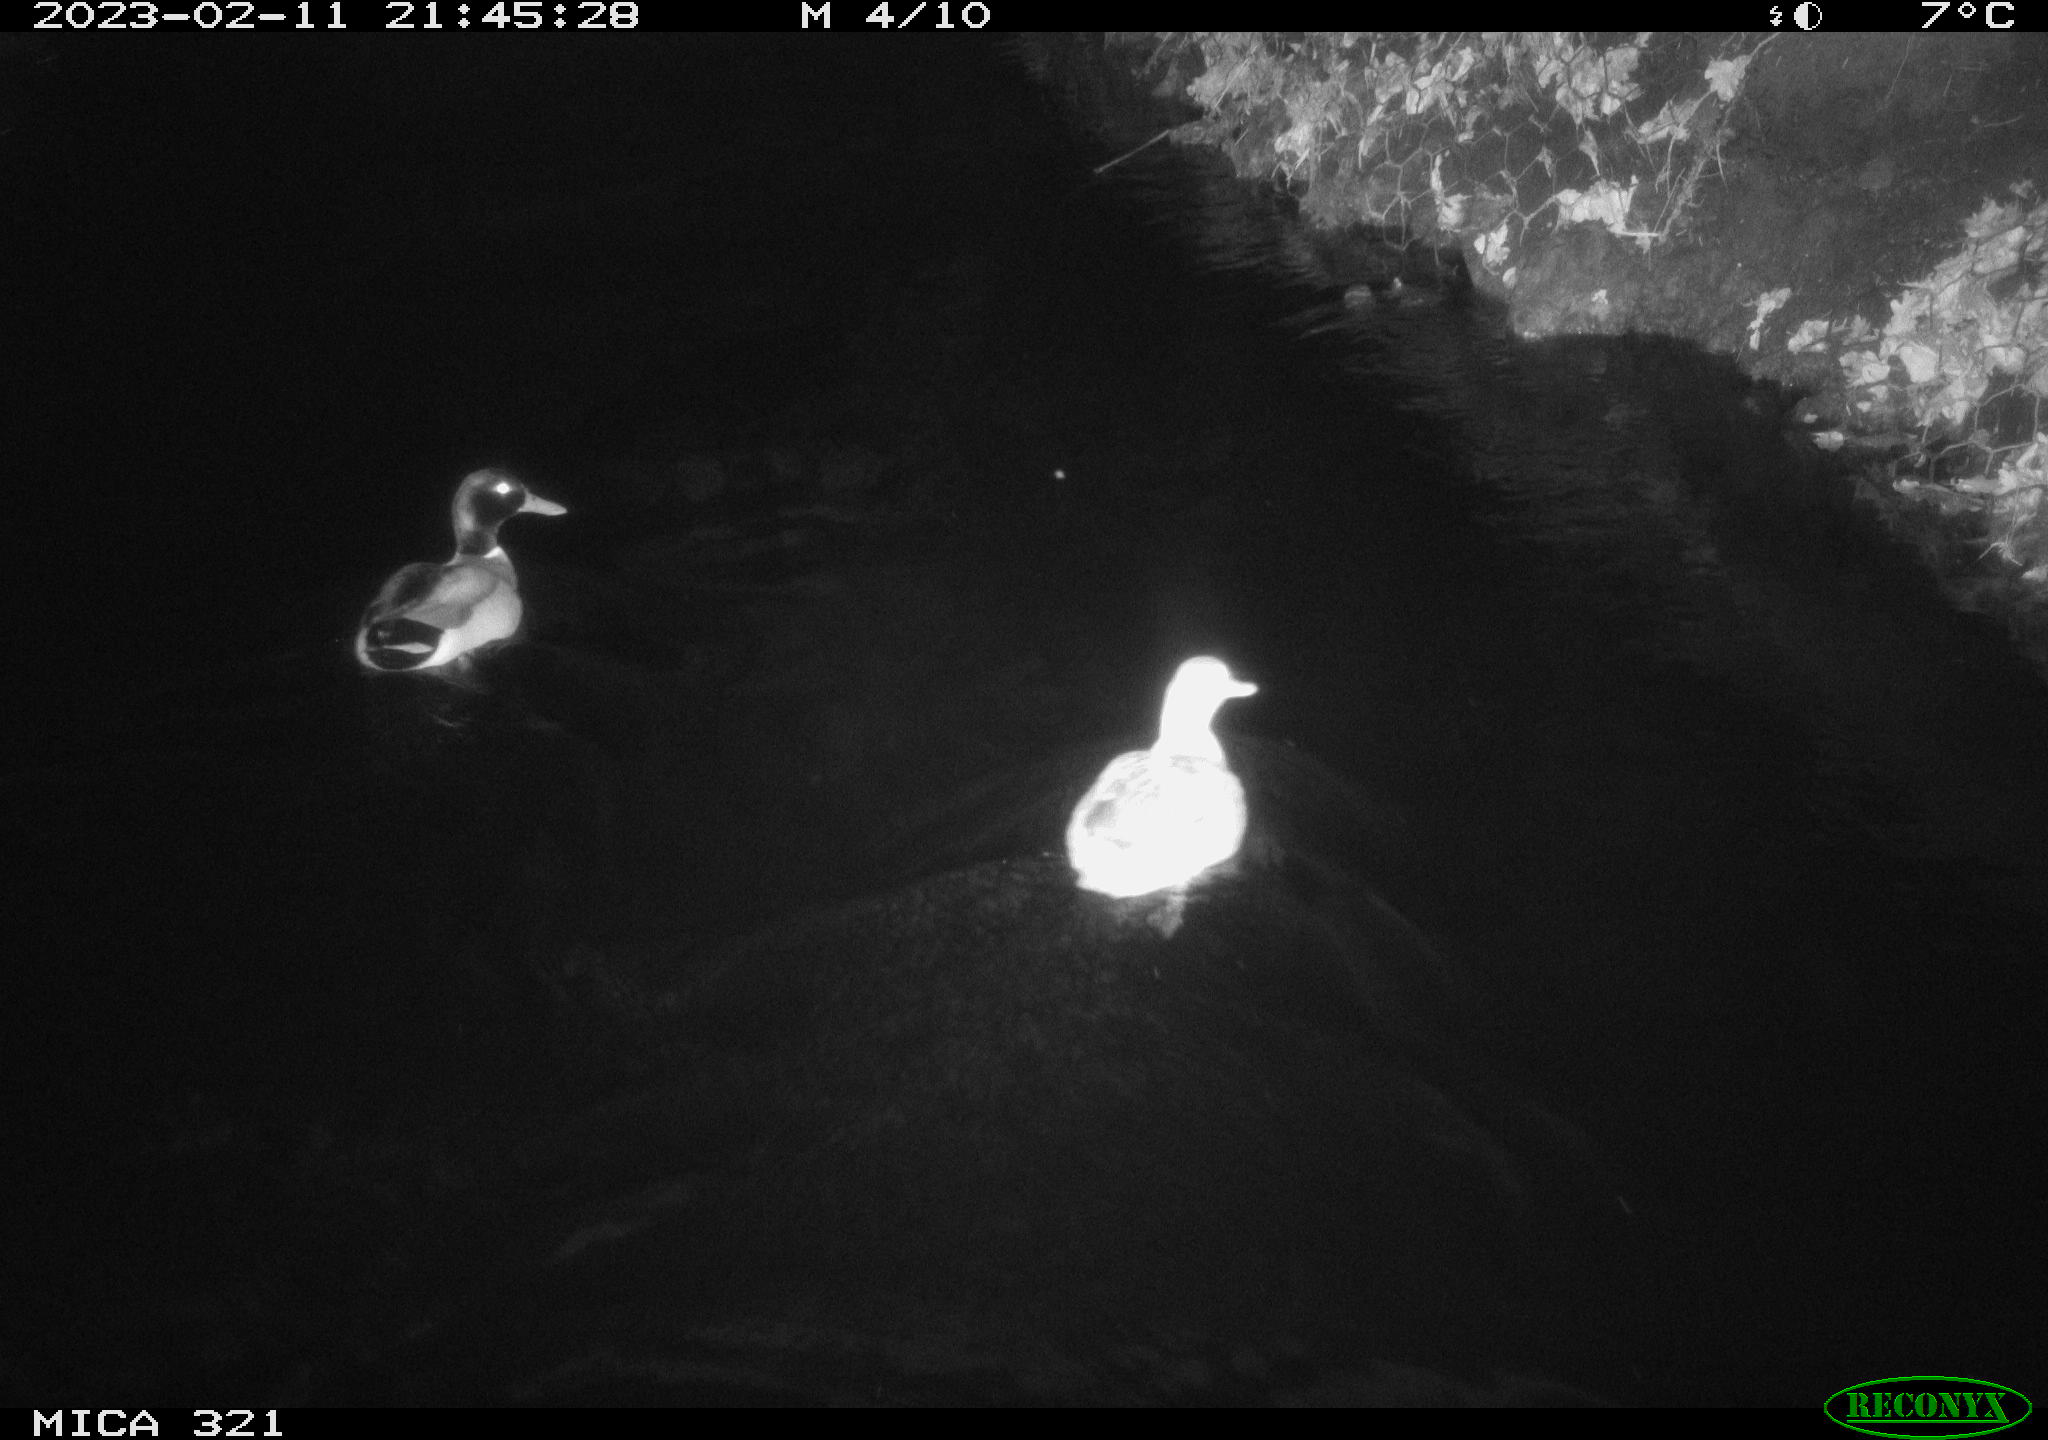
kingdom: Animalia
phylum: Chordata
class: Aves
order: Anseriformes
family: Anatidae
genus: Anas
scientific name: Anas
